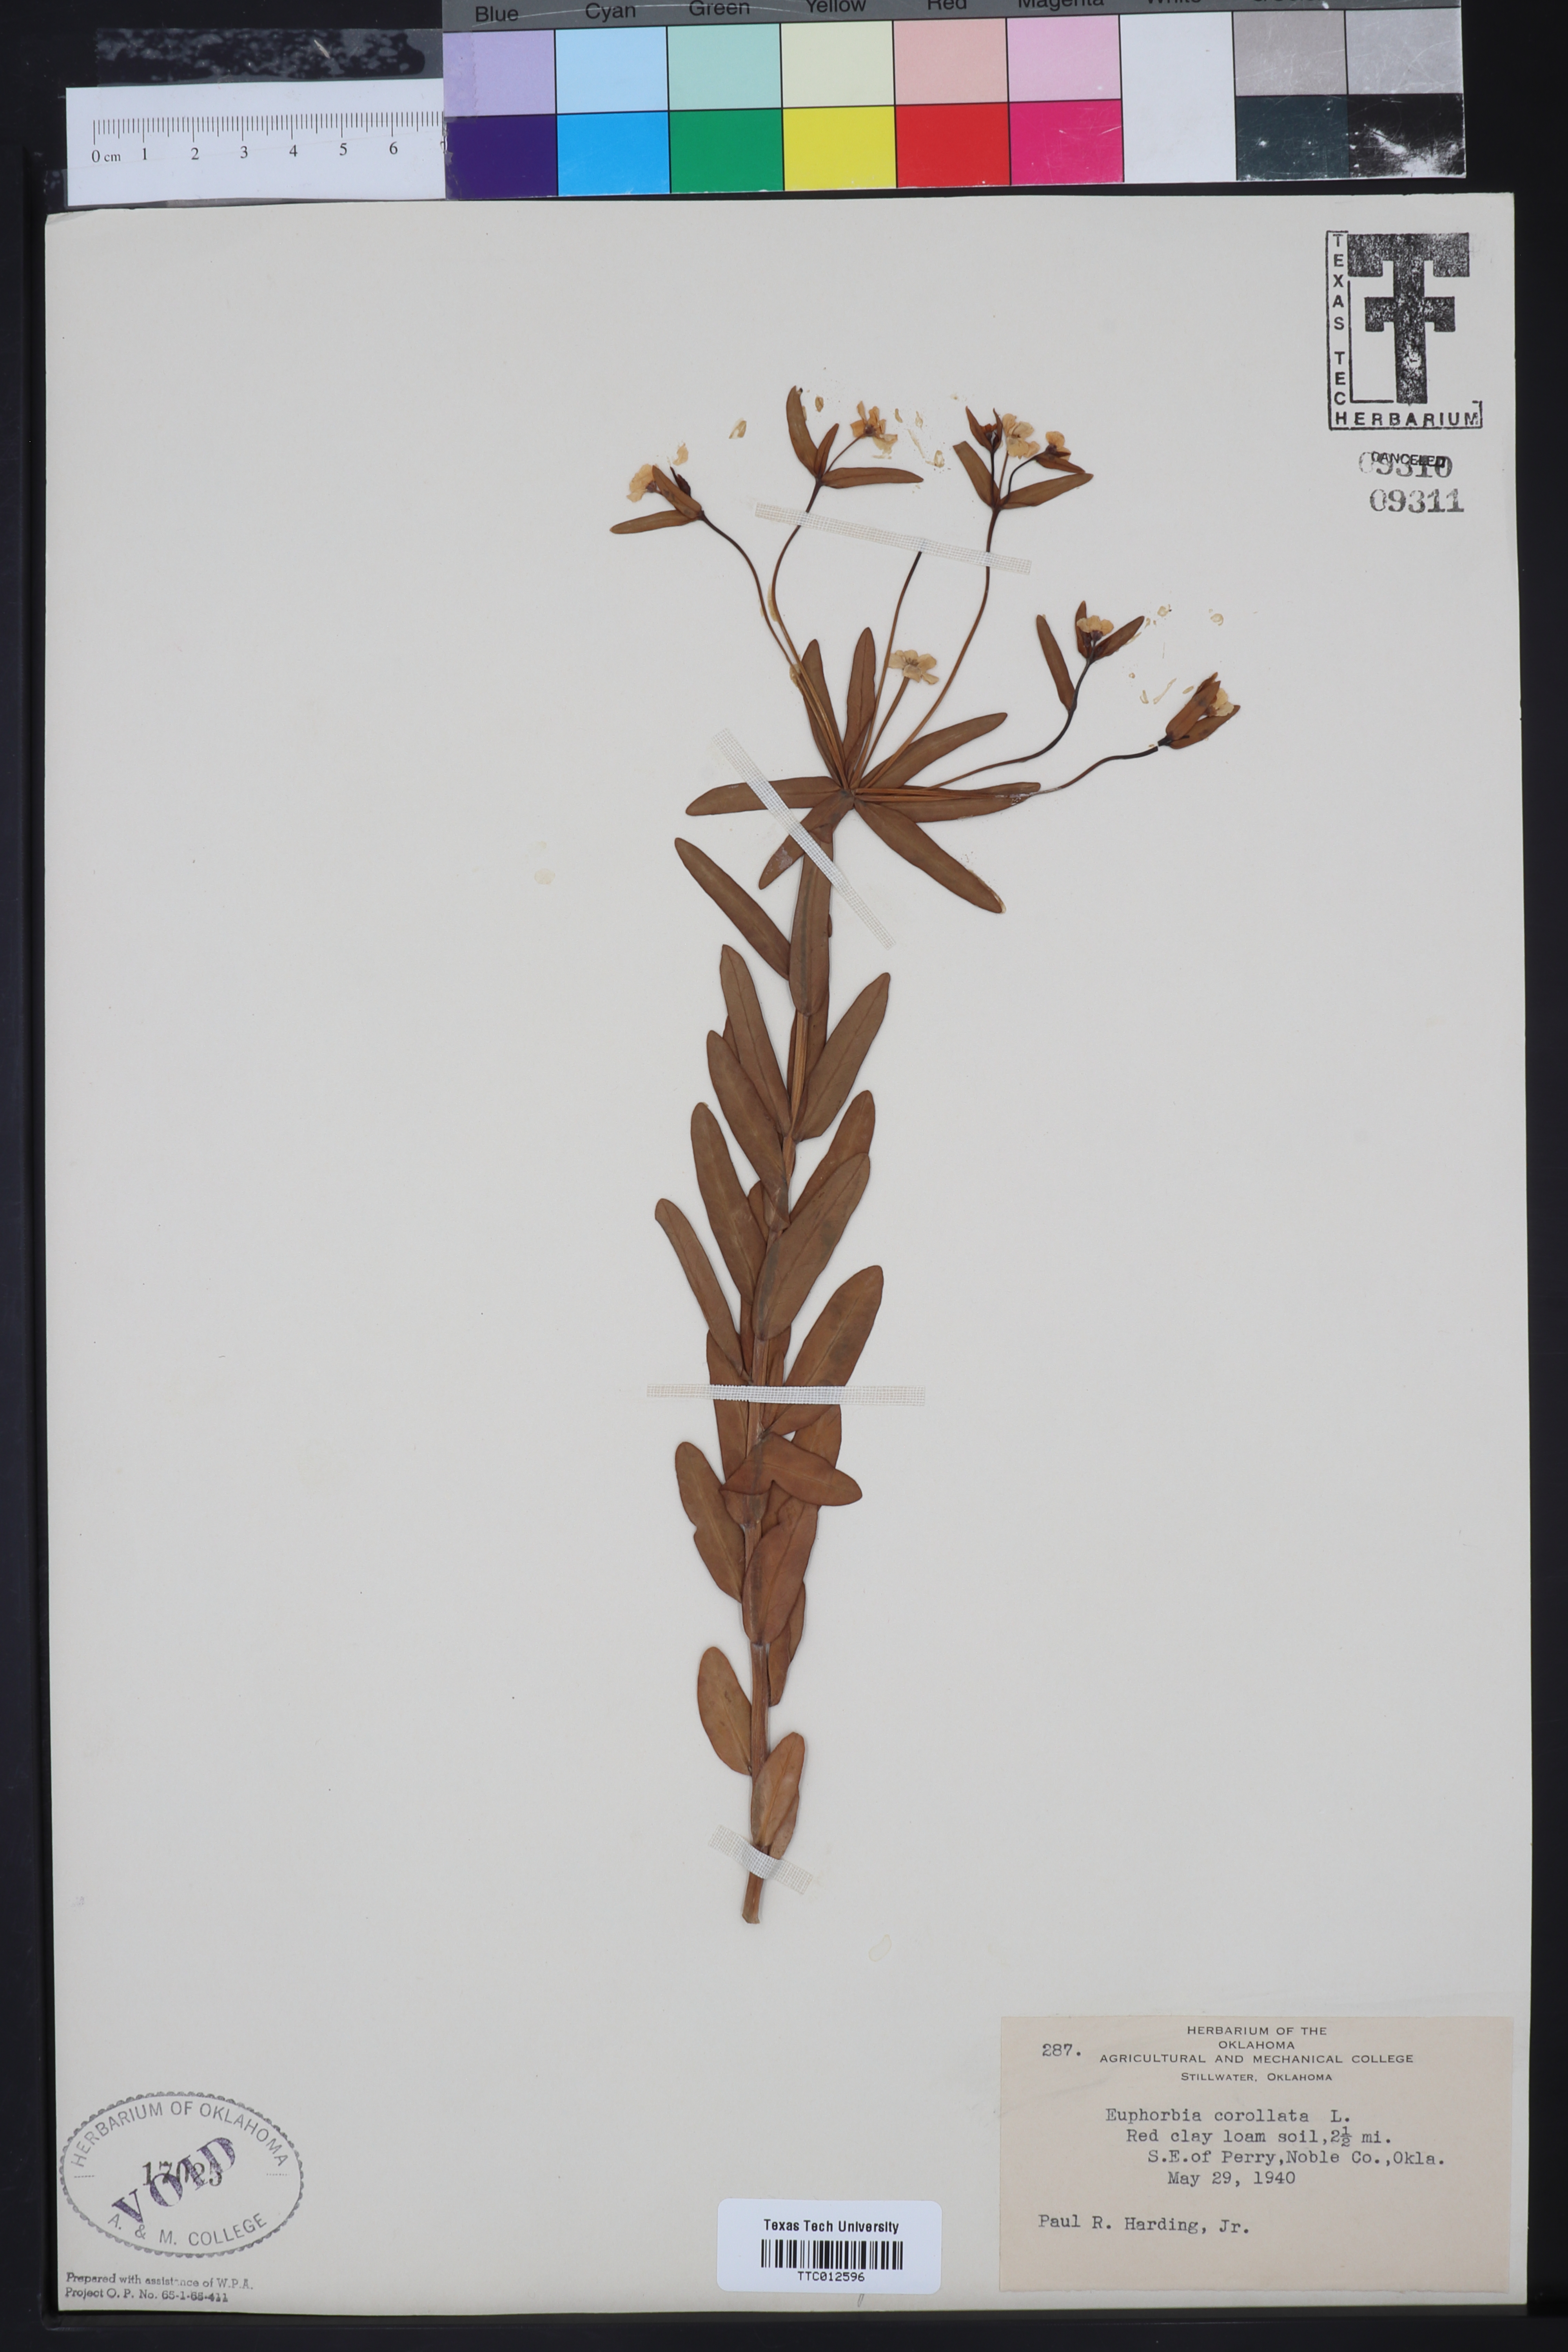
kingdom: Plantae
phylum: Tracheophyta
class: Magnoliopsida
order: Malpighiales
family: Euphorbiaceae
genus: Euphorbia
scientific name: Euphorbia corollata
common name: Flowering spurge
